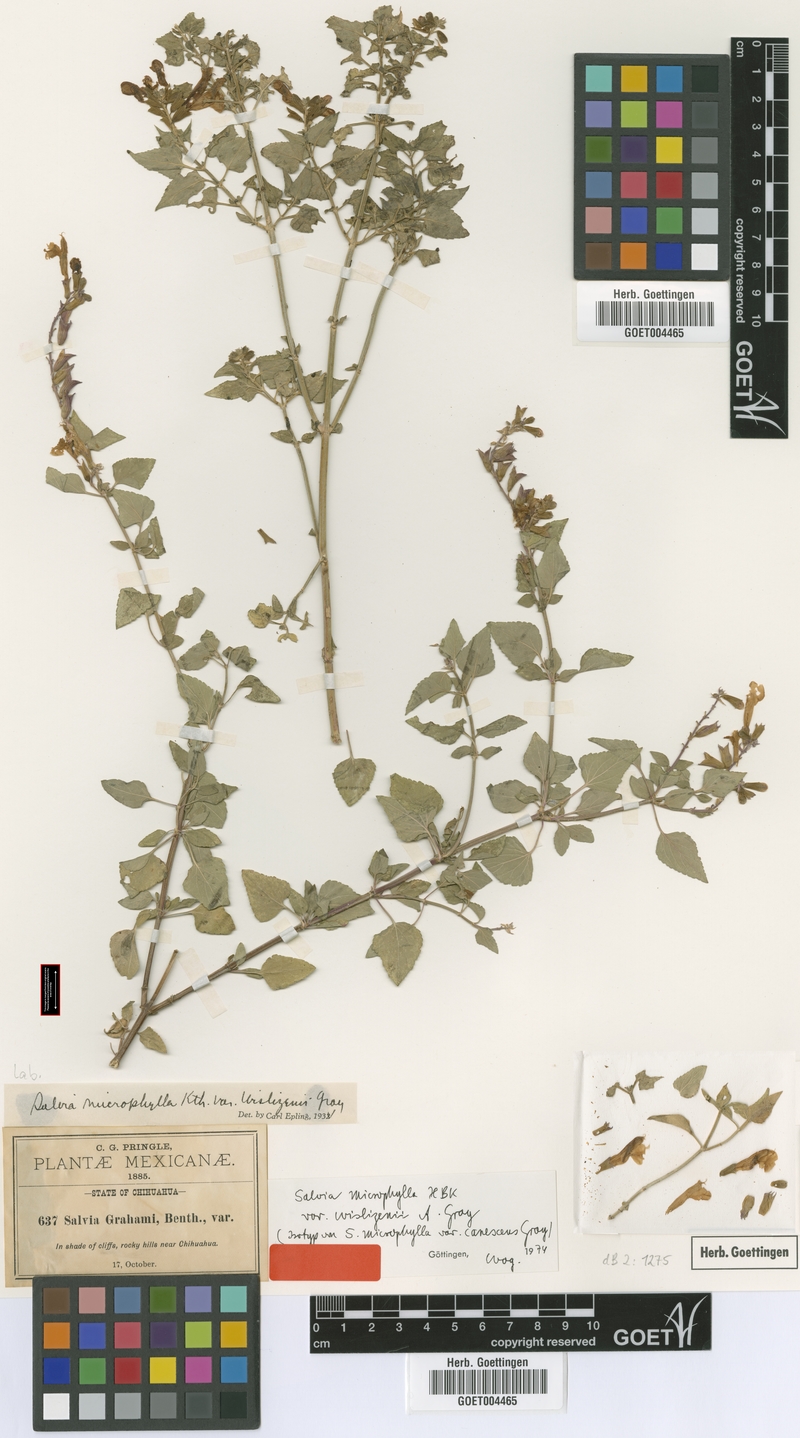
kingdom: Plantae
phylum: Tracheophyta
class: Magnoliopsida
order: Lamiales
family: Lamiaceae
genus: Salvia
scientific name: Salvia microphylla
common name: Baby sage
